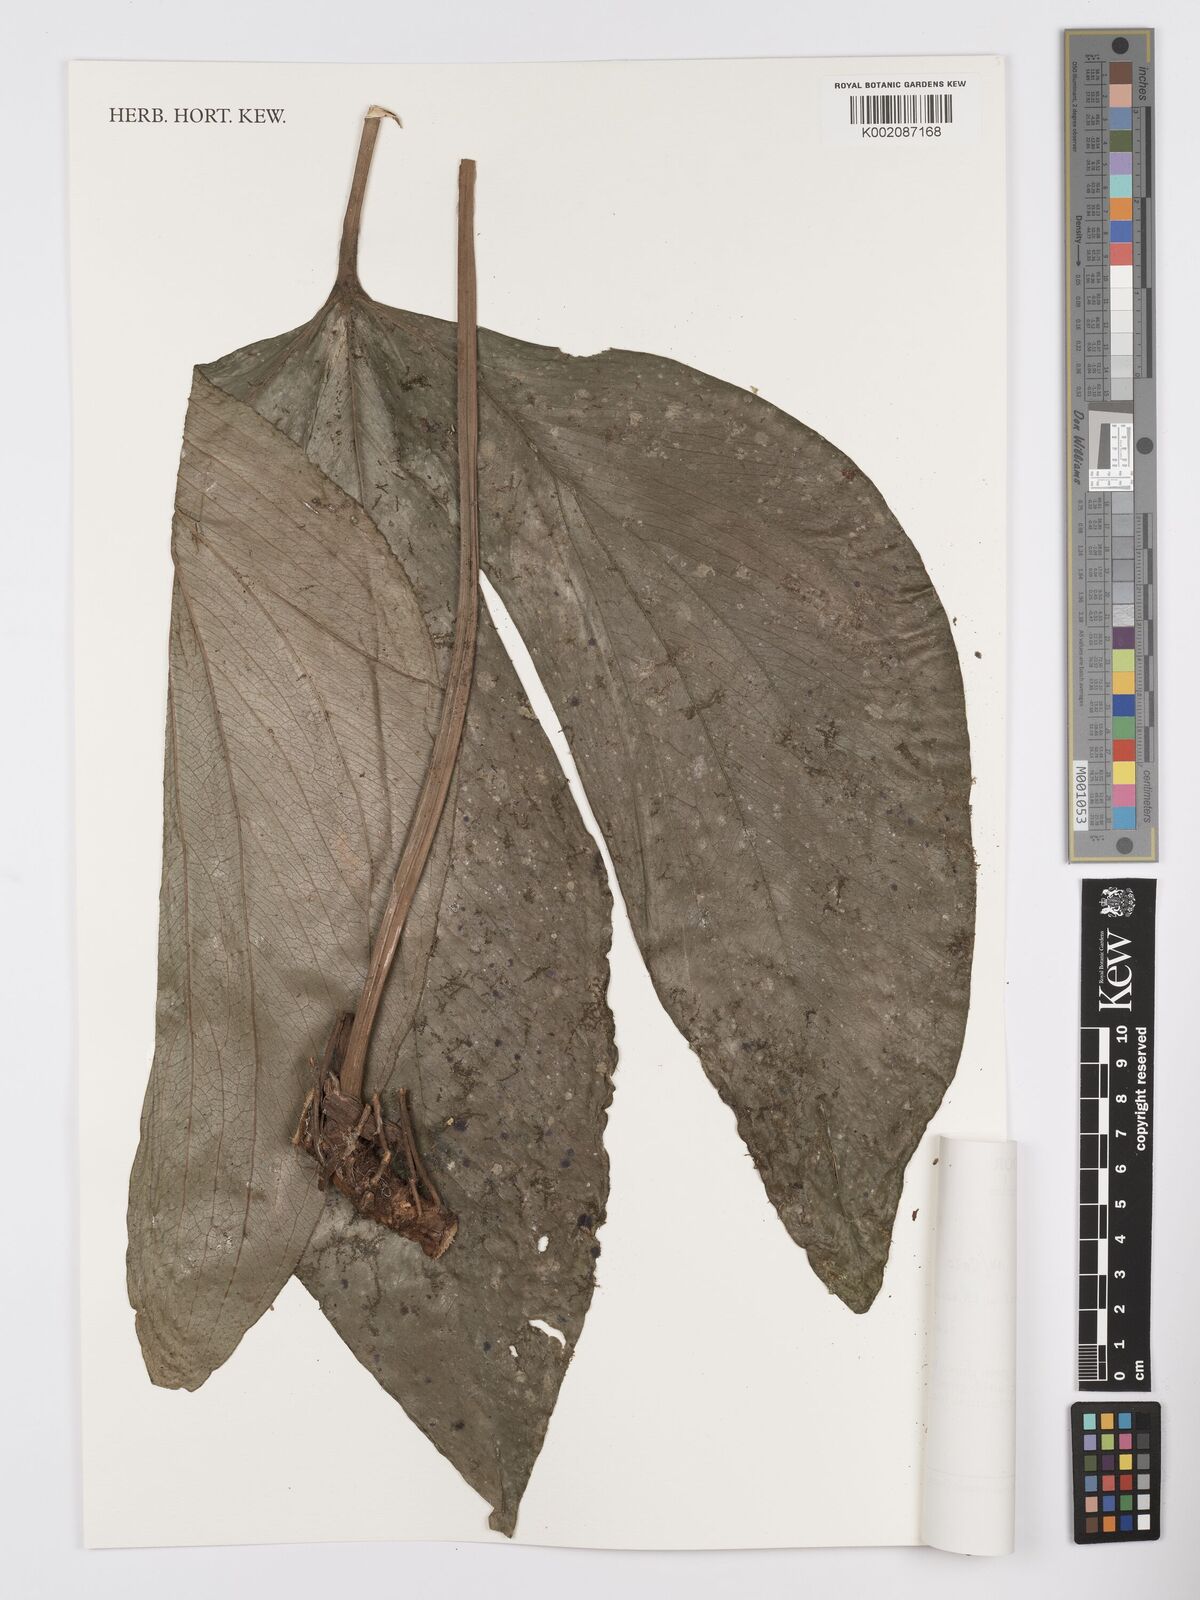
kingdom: Plantae
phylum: Tracheophyta
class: Liliopsida
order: Alismatales
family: Araceae
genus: Anthurium
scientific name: Anthurium truncicola
